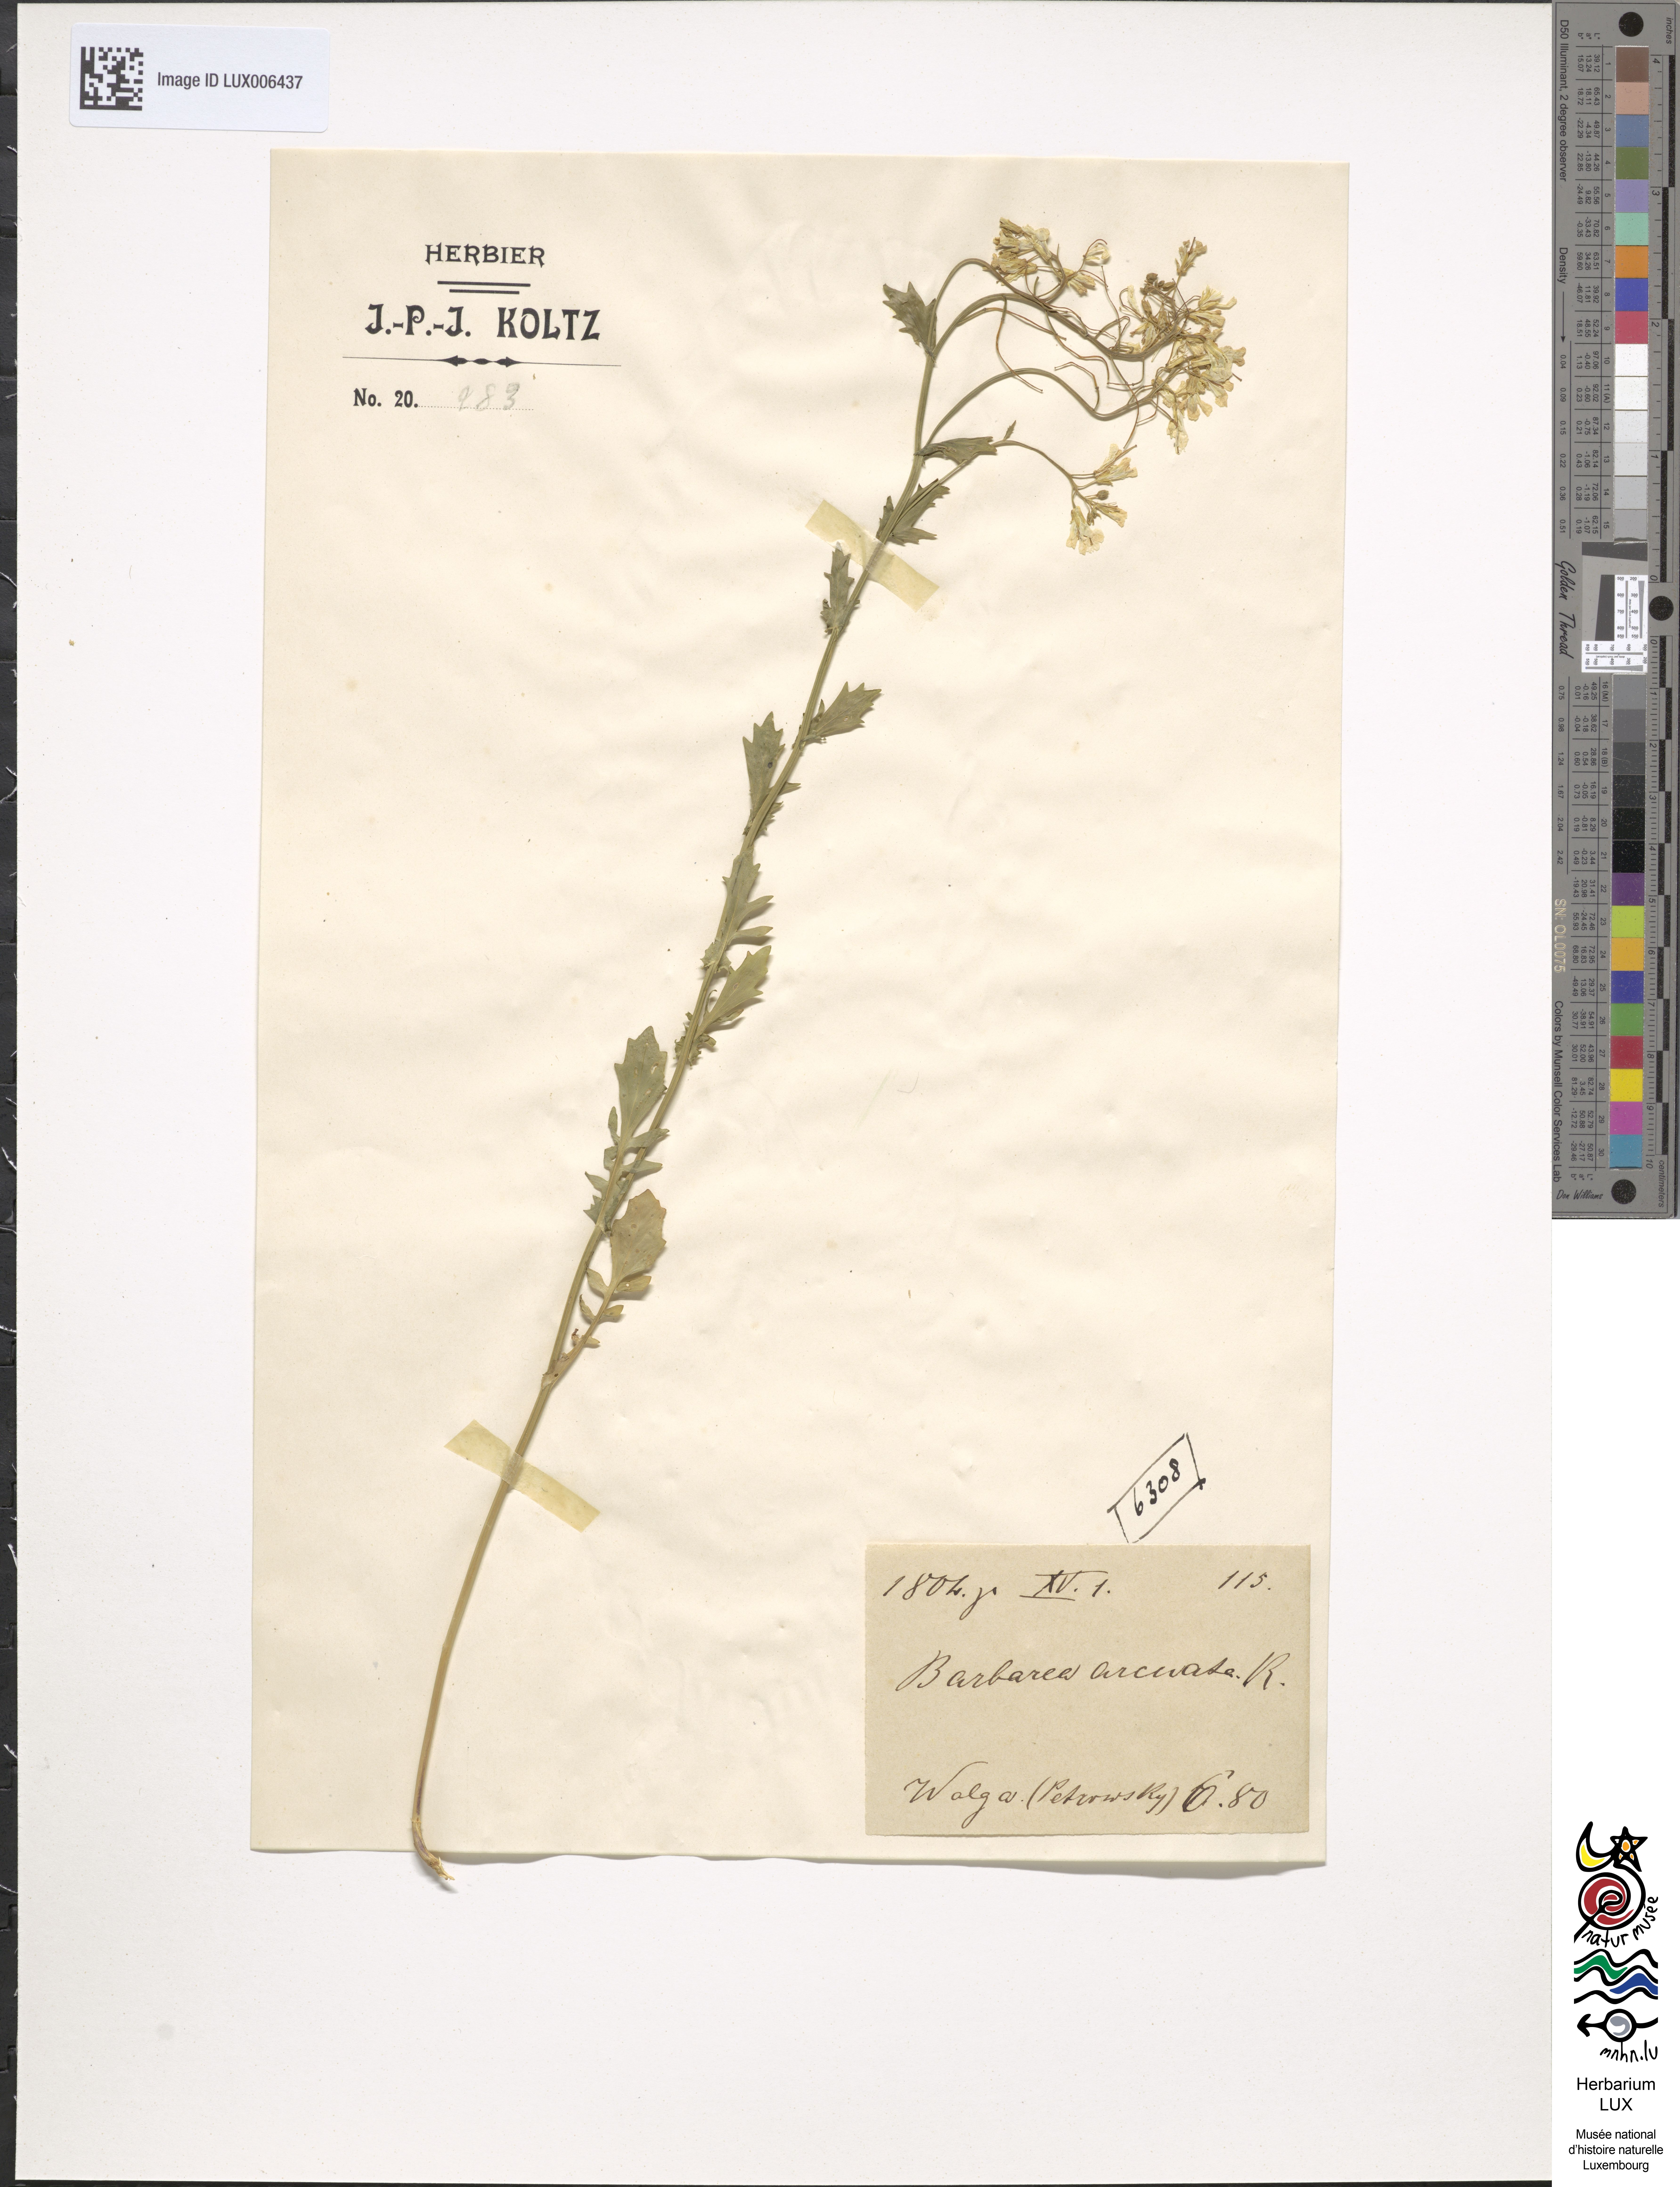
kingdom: Plantae
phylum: Tracheophyta
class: Magnoliopsida
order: Brassicales
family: Brassicaceae
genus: Barbarea
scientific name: Barbarea vulgaris
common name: Cressy-greens
